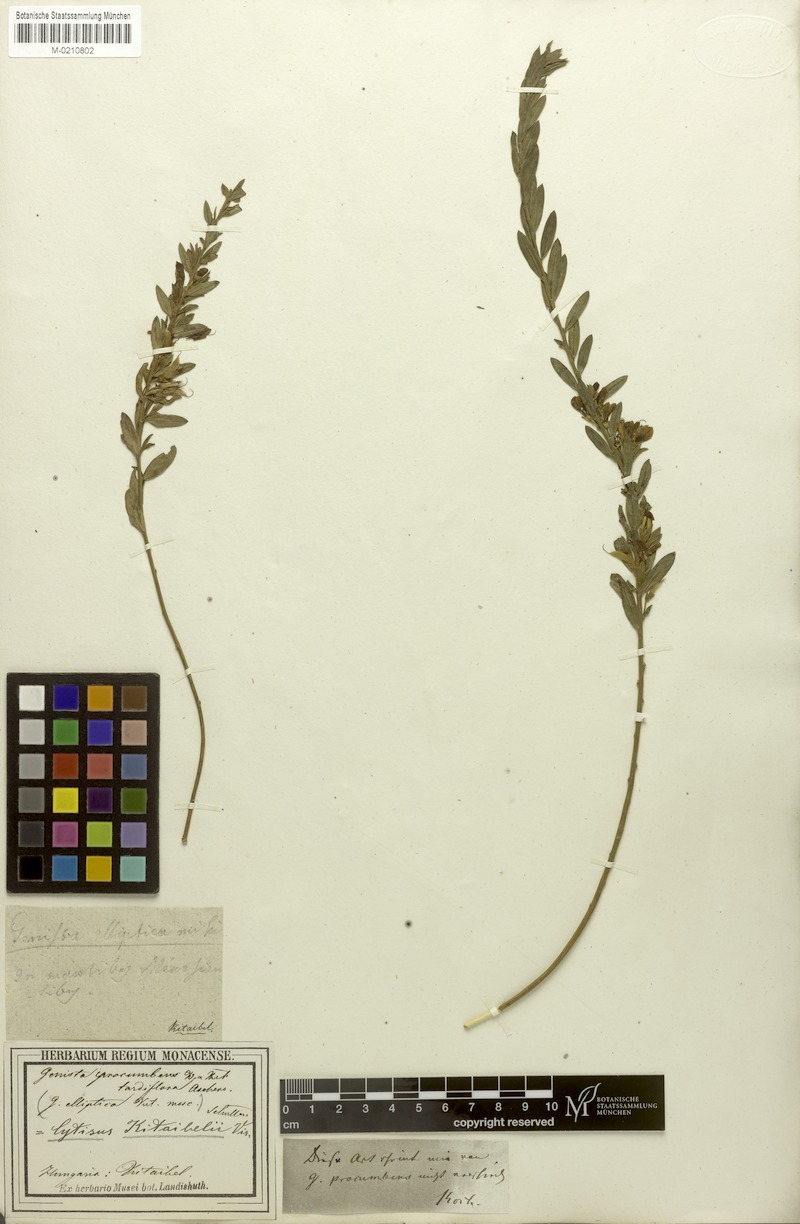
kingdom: Plantae
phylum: Tracheophyta
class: Magnoliopsida
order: Fabales
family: Fabaceae
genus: Cytisus
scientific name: Cytisus procumbens
